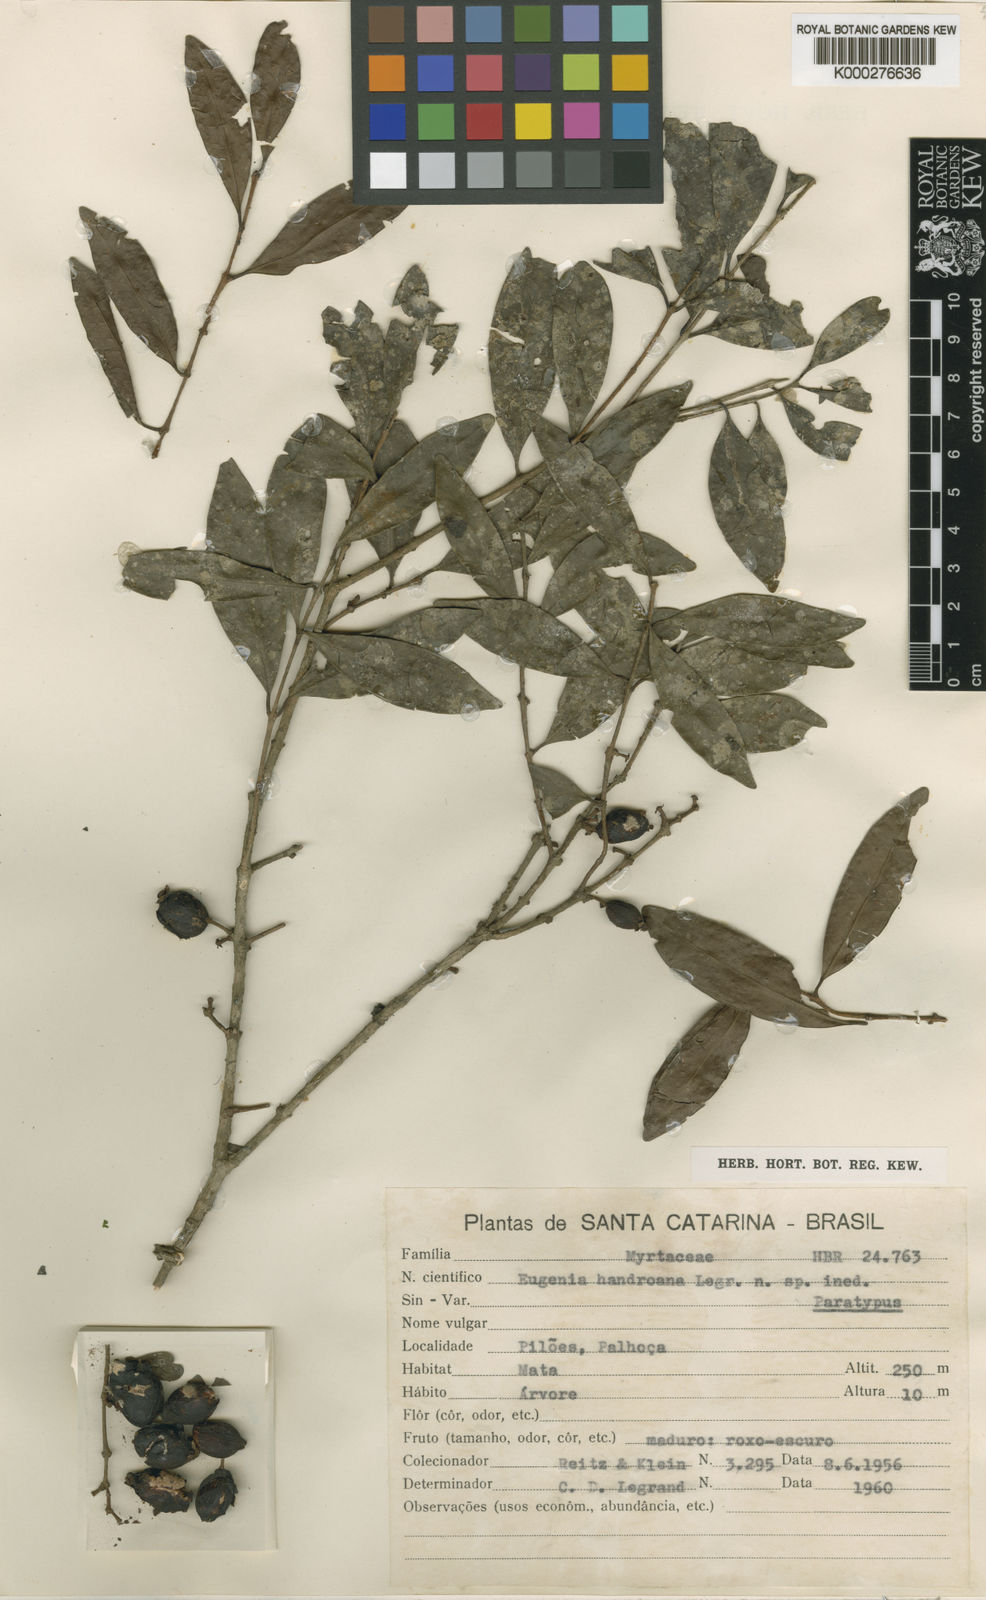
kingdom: Plantae
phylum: Tracheophyta
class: Magnoliopsida
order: Myrtales
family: Myrtaceae
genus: Eugenia
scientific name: Eugenia handroana
